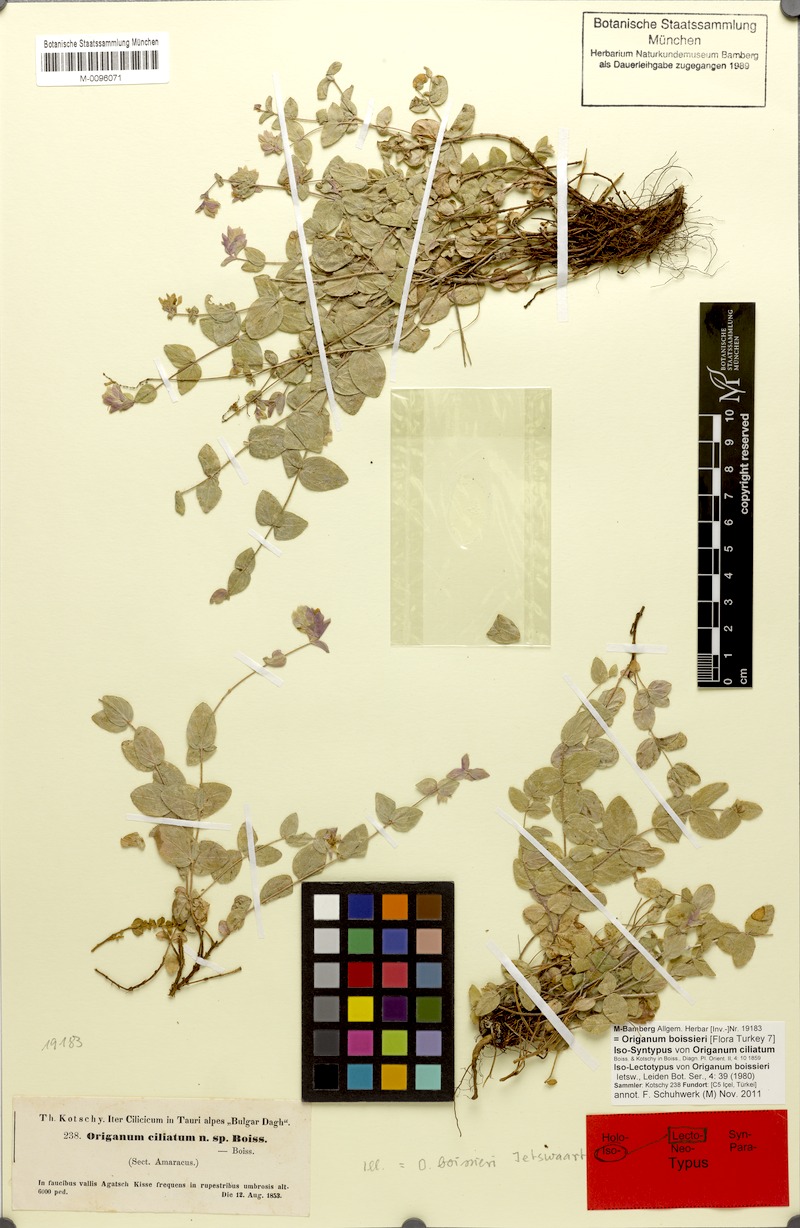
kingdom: Plantae
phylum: Tracheophyta
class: Magnoliopsida
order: Lamiales
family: Lamiaceae
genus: Origanum
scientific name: Origanum boissieri
